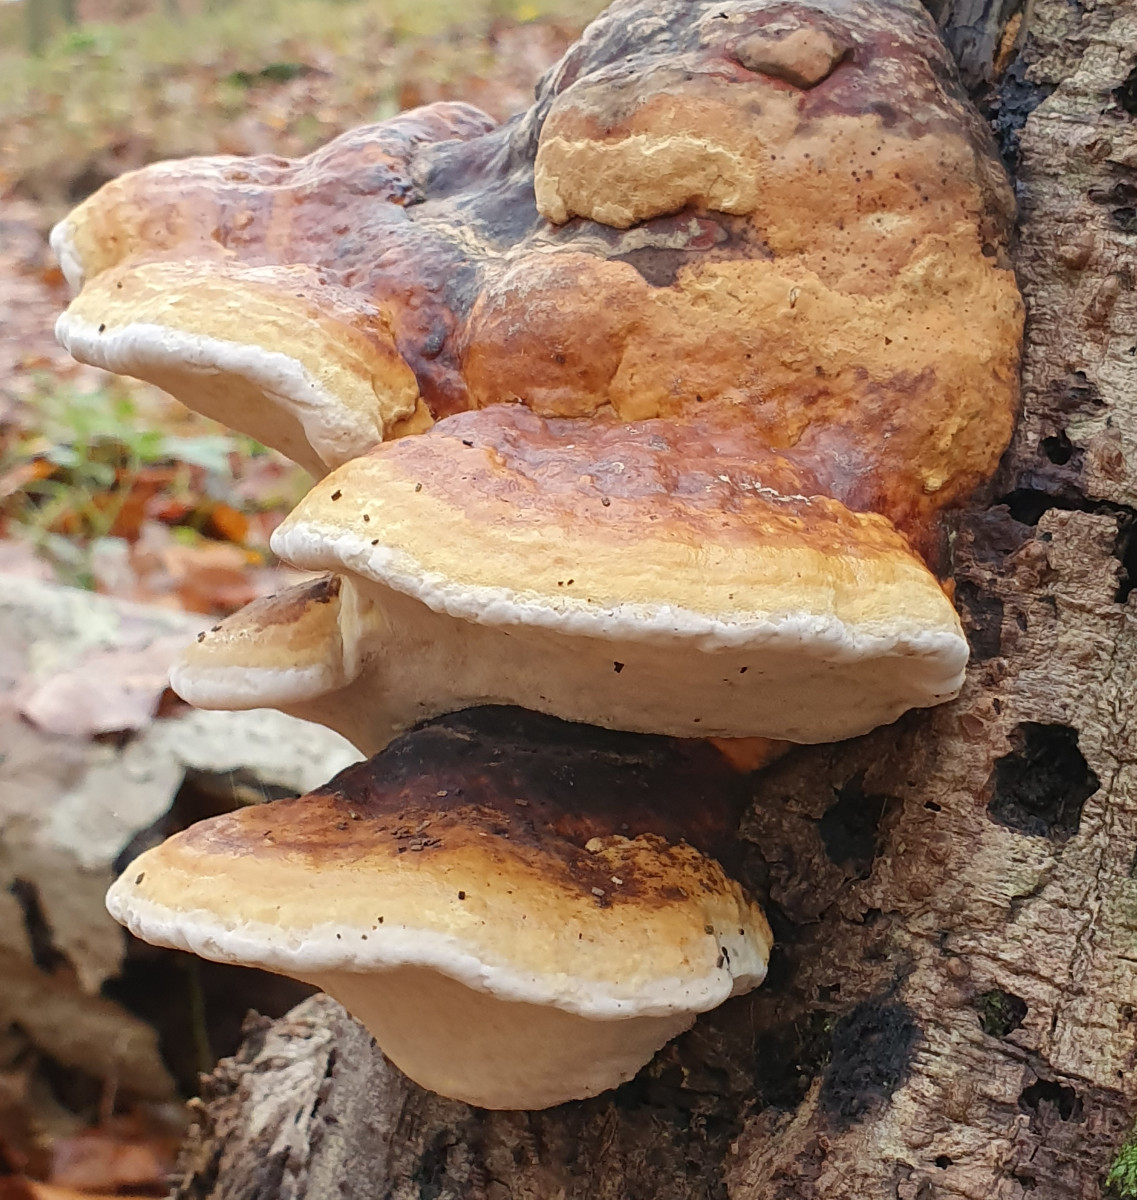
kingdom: Fungi
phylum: Basidiomycota
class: Agaricomycetes
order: Polyporales
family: Fomitopsidaceae
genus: Fomitopsis
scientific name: Fomitopsis pinicola
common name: randbæltet hovporesvamp
